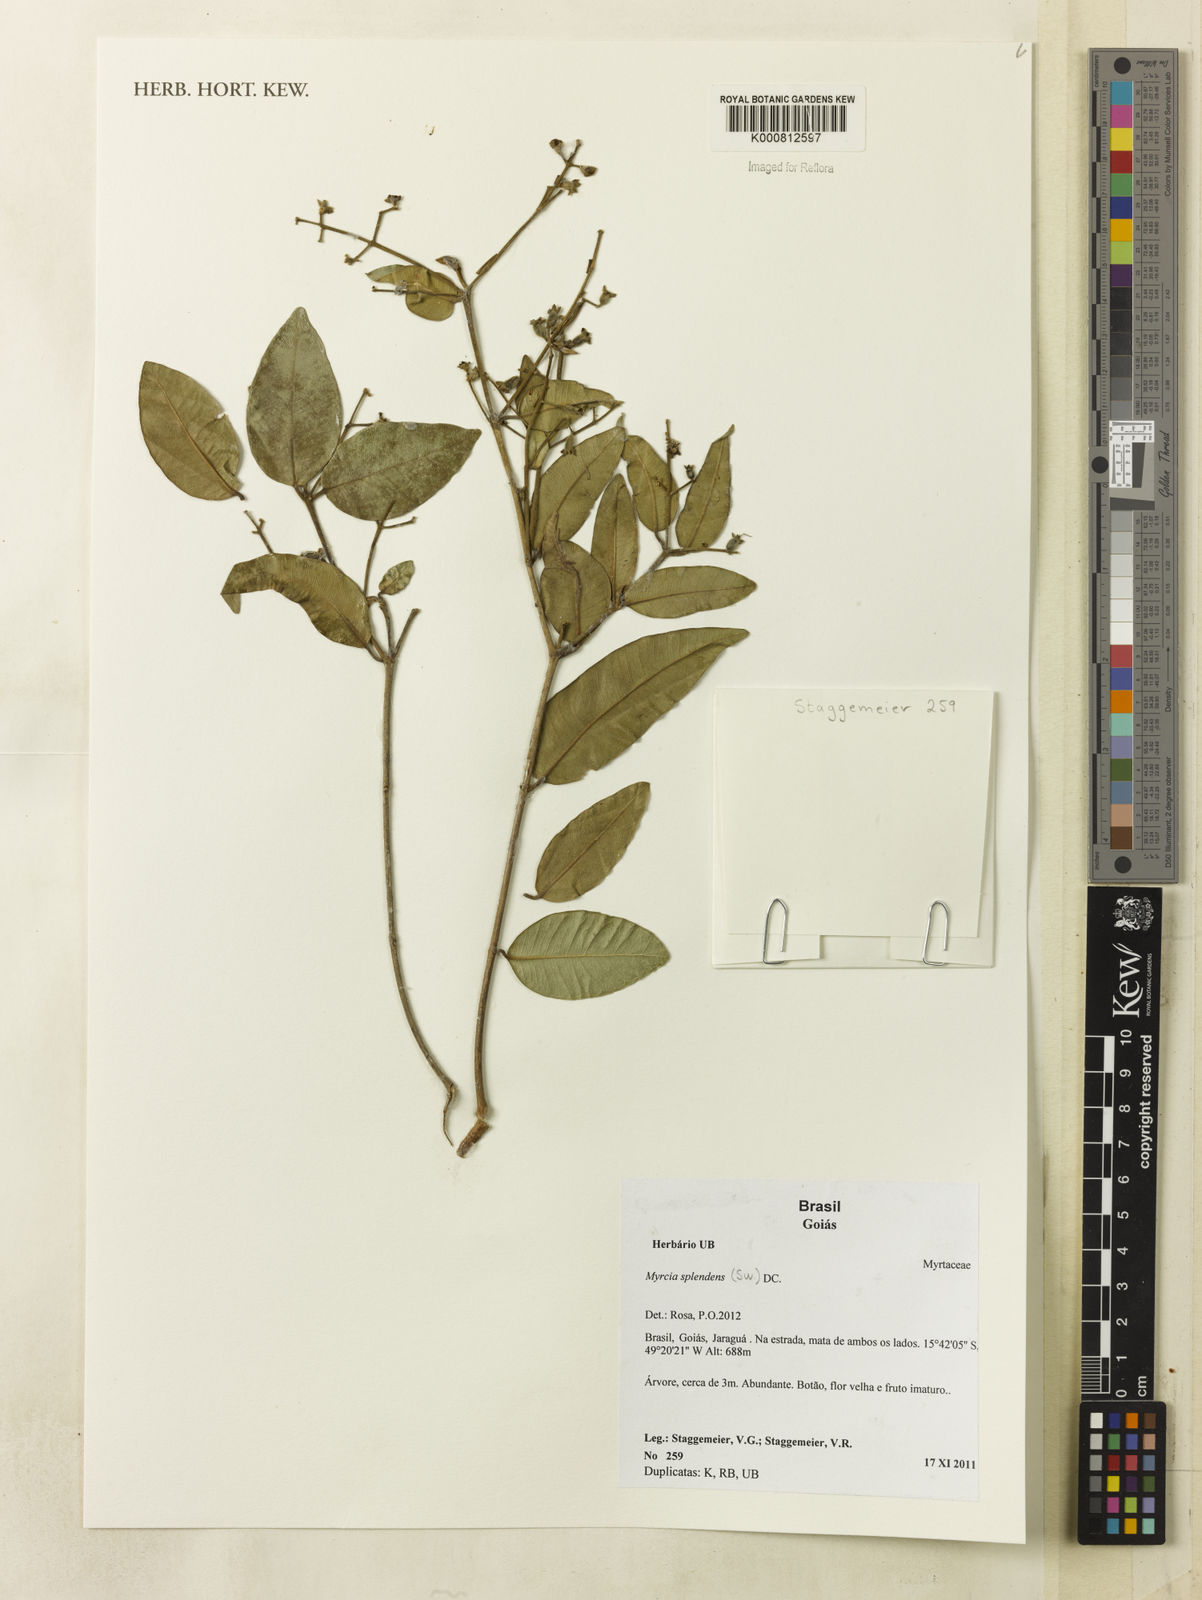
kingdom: Plantae
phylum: Tracheophyta
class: Magnoliopsida
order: Myrtales
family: Myrtaceae
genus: Myrcia
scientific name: Myrcia splendens
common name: Surinam cherry
